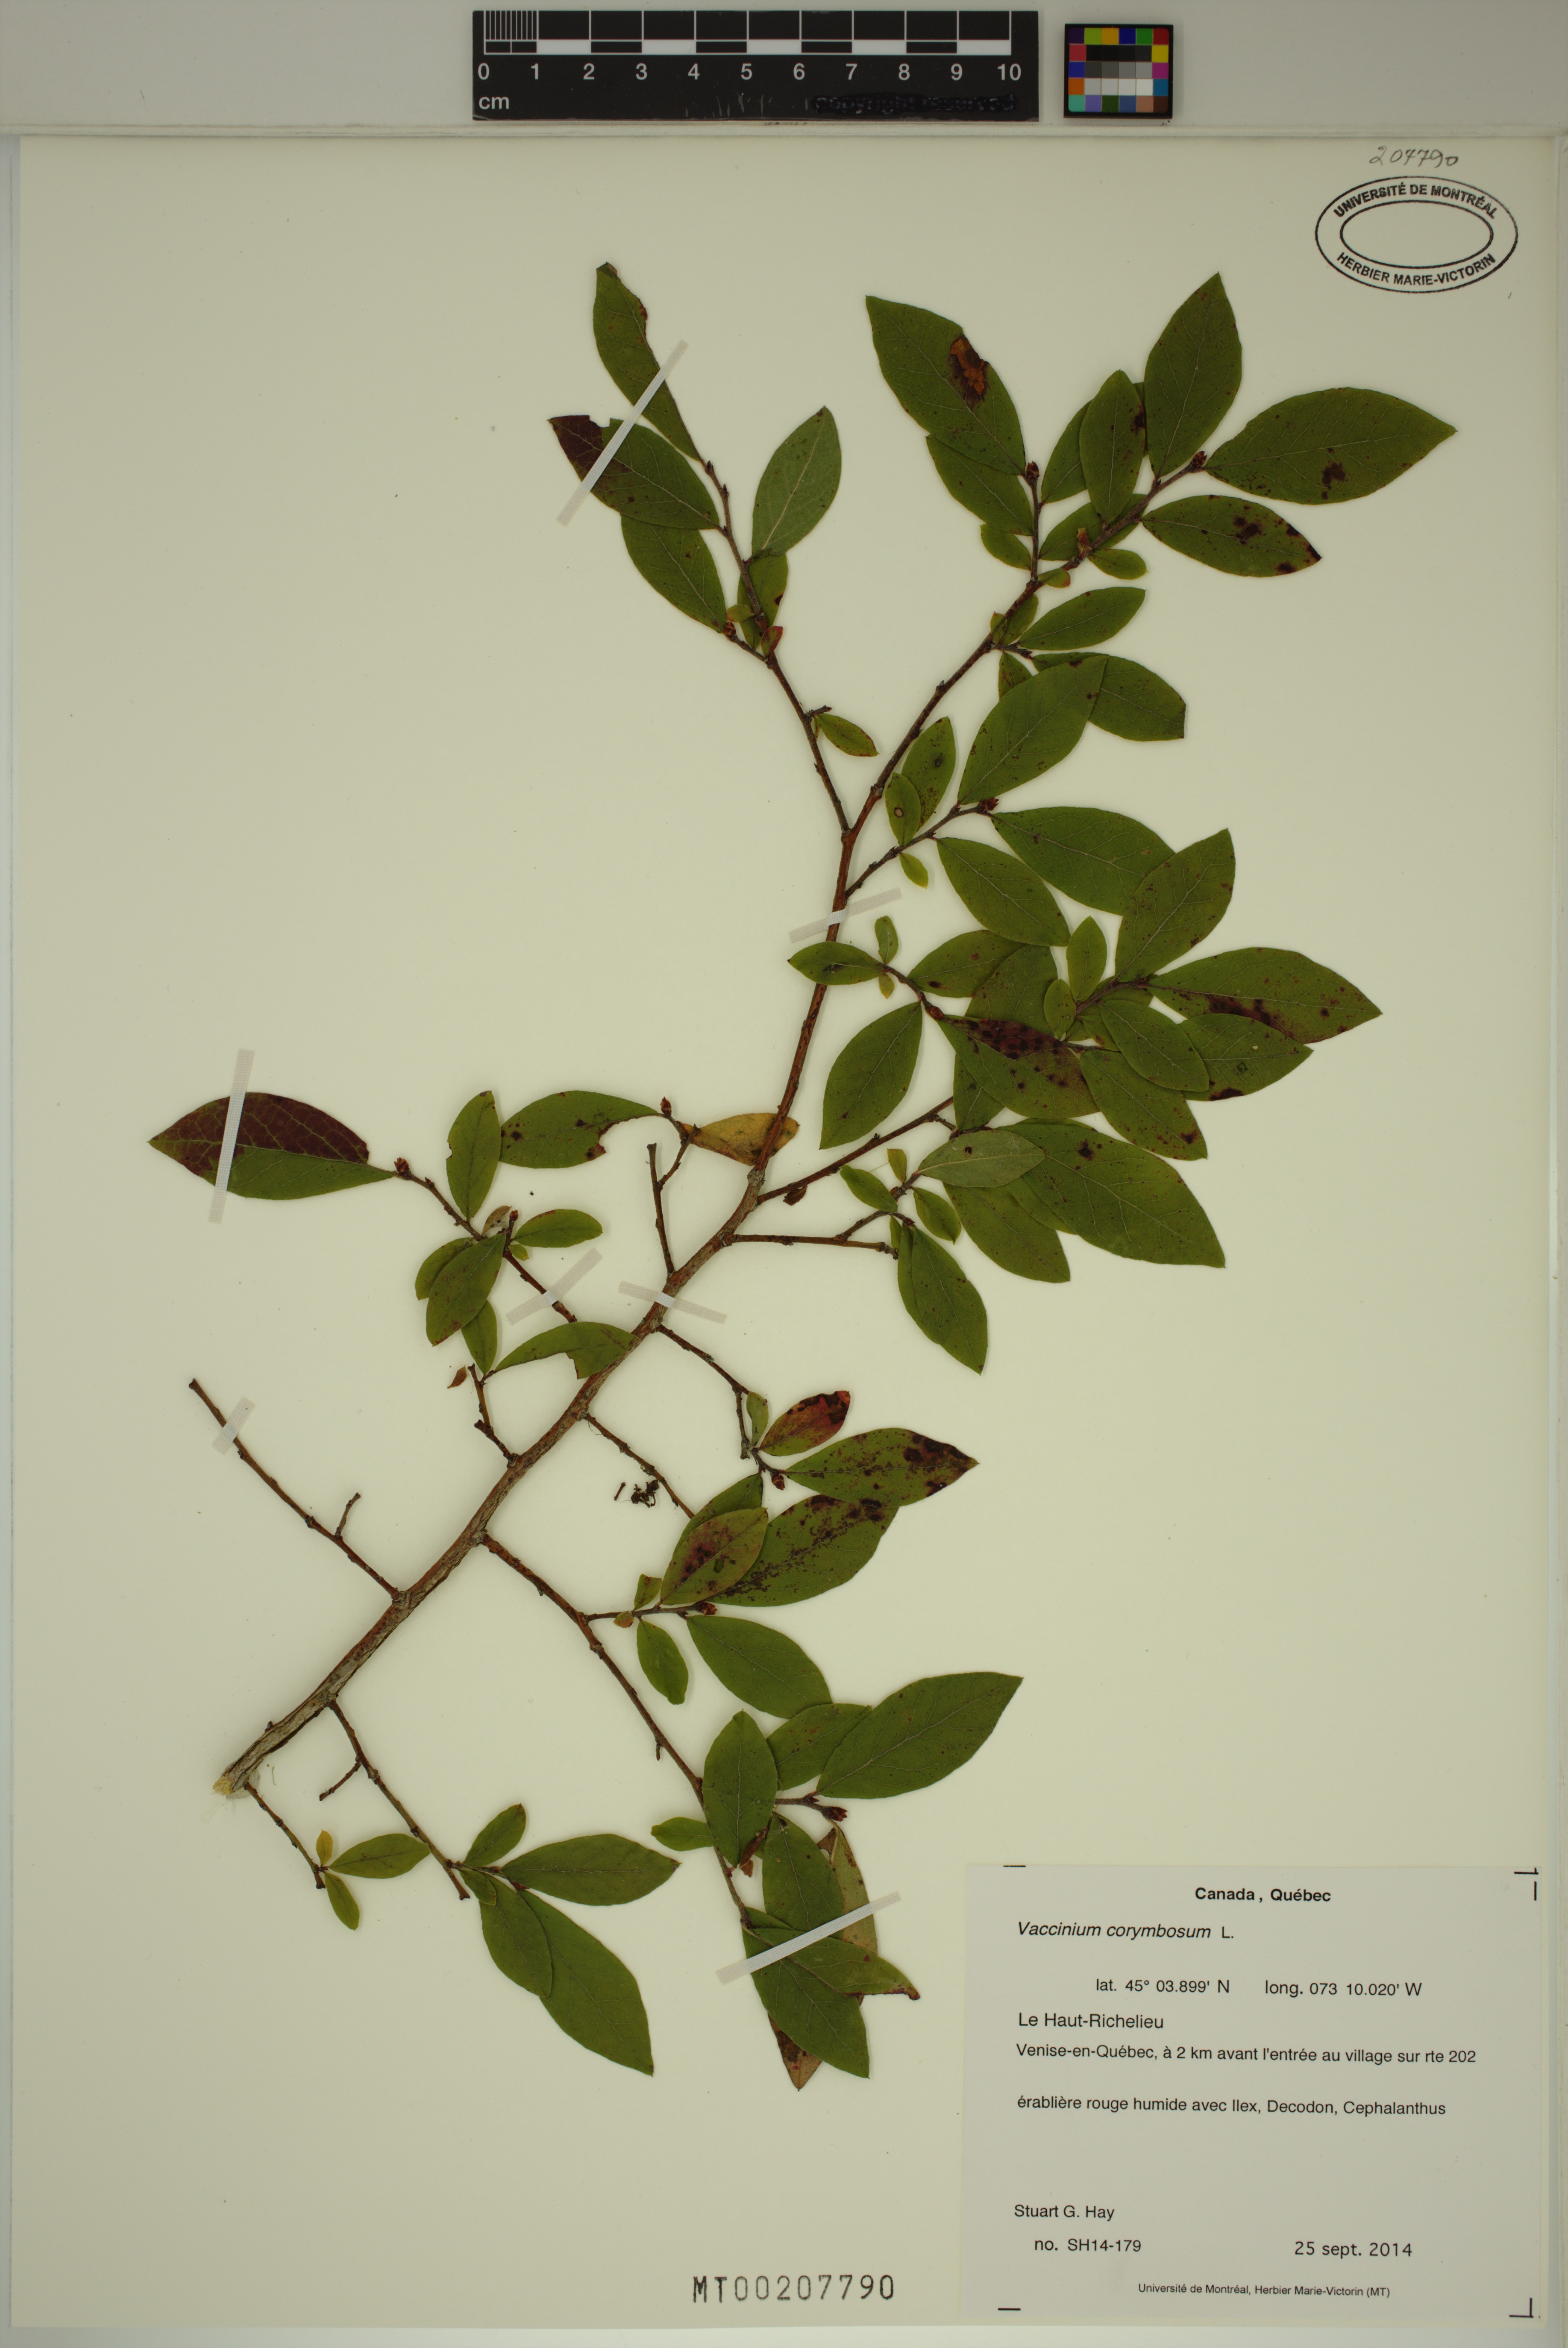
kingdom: Plantae
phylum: Tracheophyta
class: Magnoliopsida
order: Ericales
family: Ericaceae
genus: Vaccinium
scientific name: Vaccinium corymbosum
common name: Blueberry
